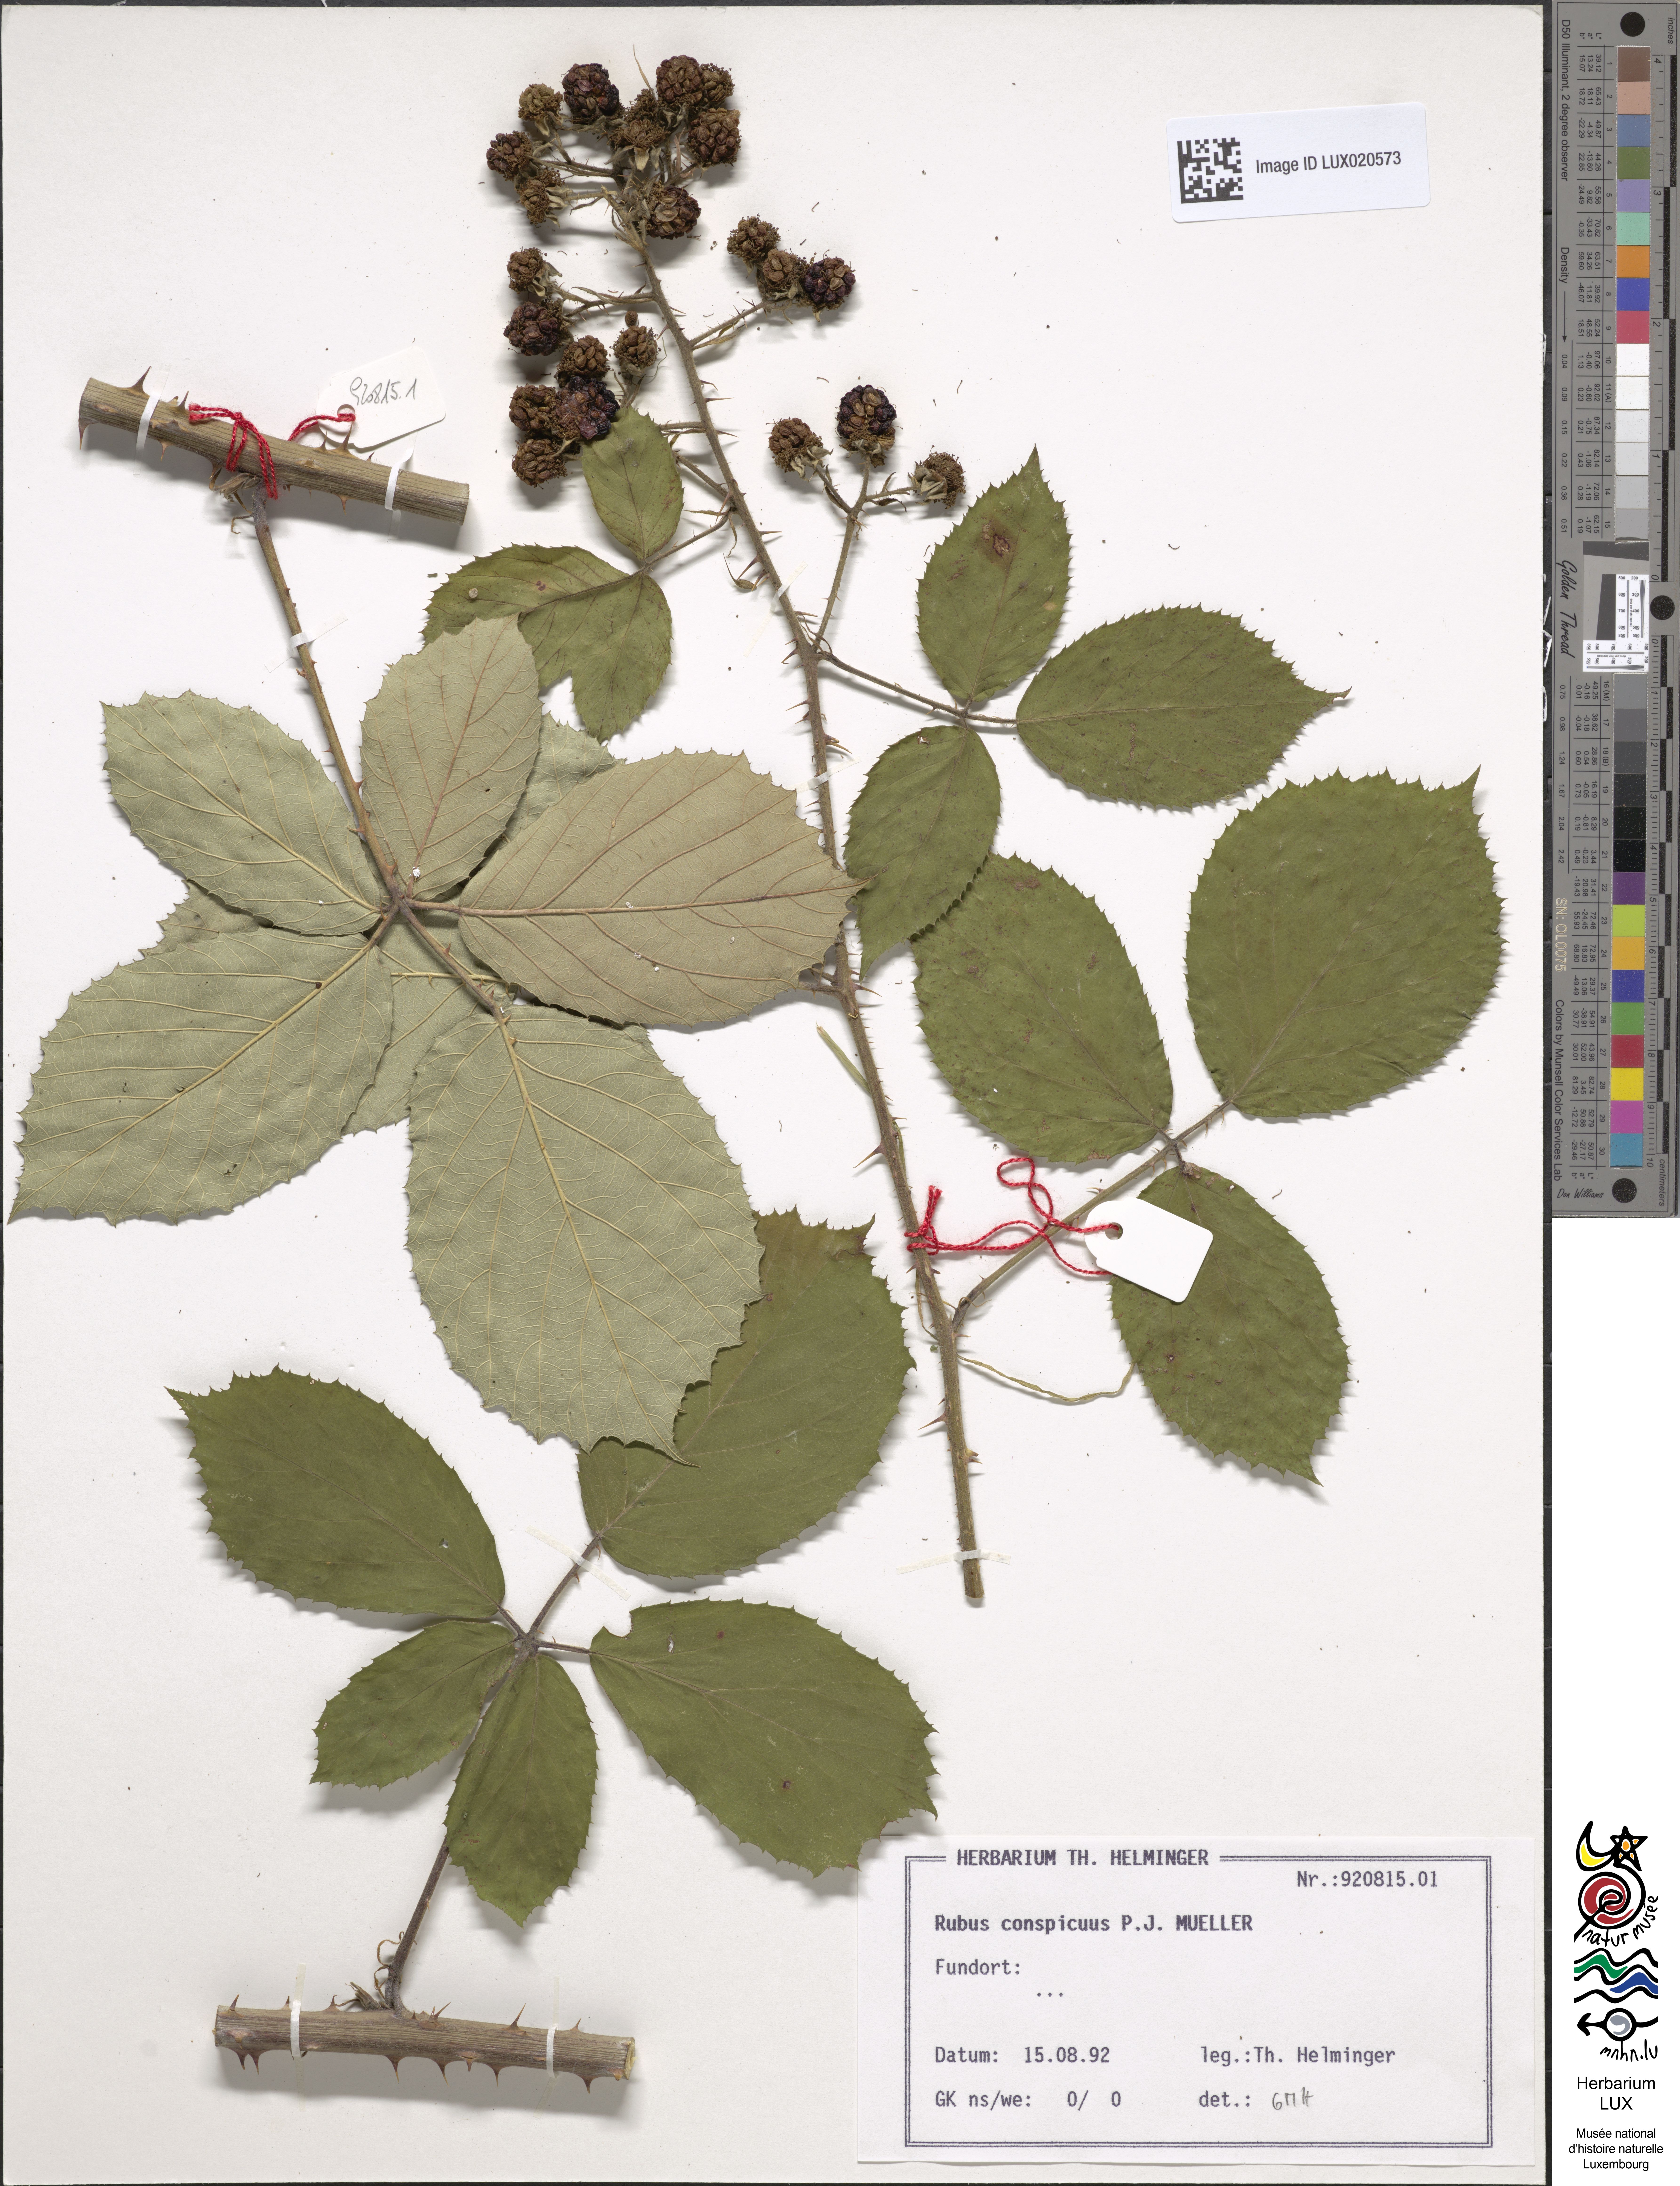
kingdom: Plantae
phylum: Tracheophyta
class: Magnoliopsida
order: Rosales
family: Rosaceae
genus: Rubus
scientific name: Rubus conspicuus
